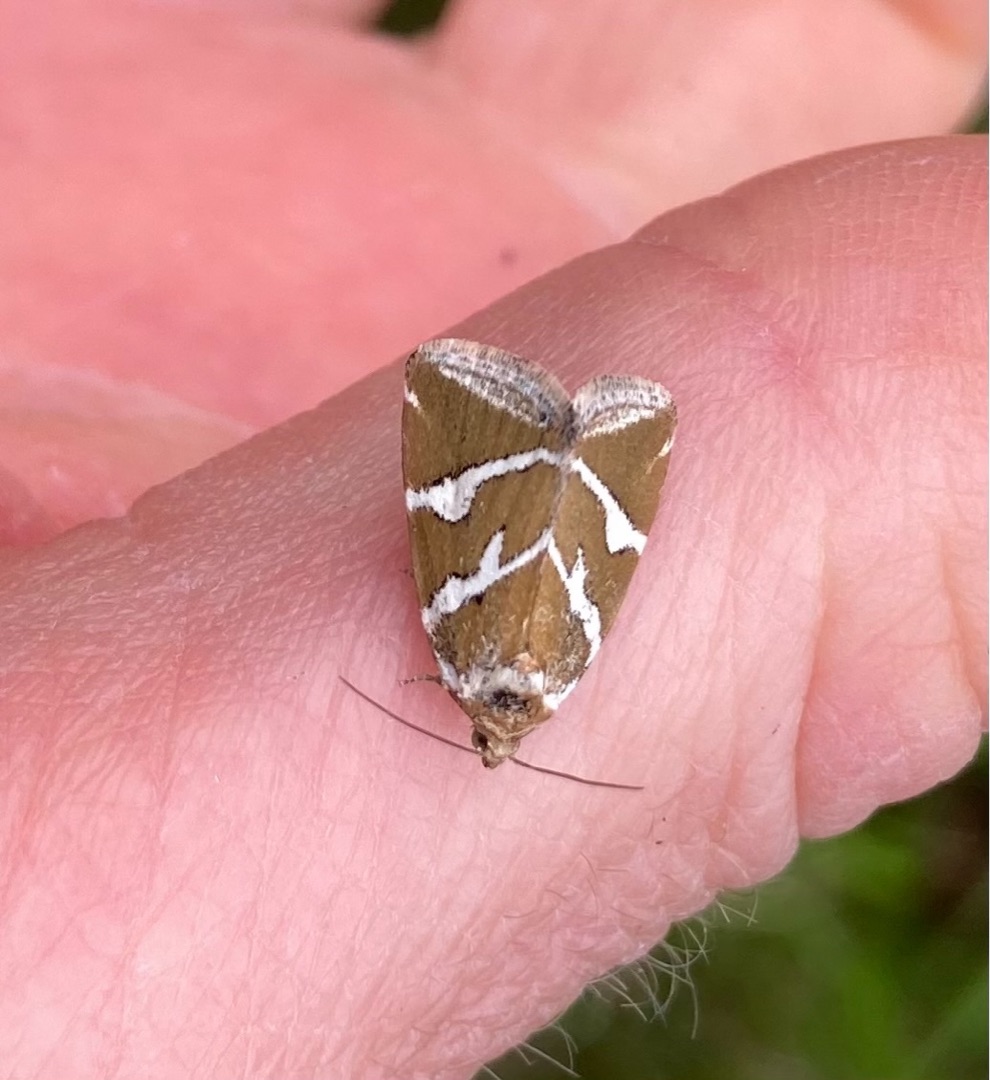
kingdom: Animalia
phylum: Arthropoda
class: Insecta
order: Lepidoptera
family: Noctuidae
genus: Deltote
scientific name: Deltote bankiana
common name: Tvebånd-dagugle
